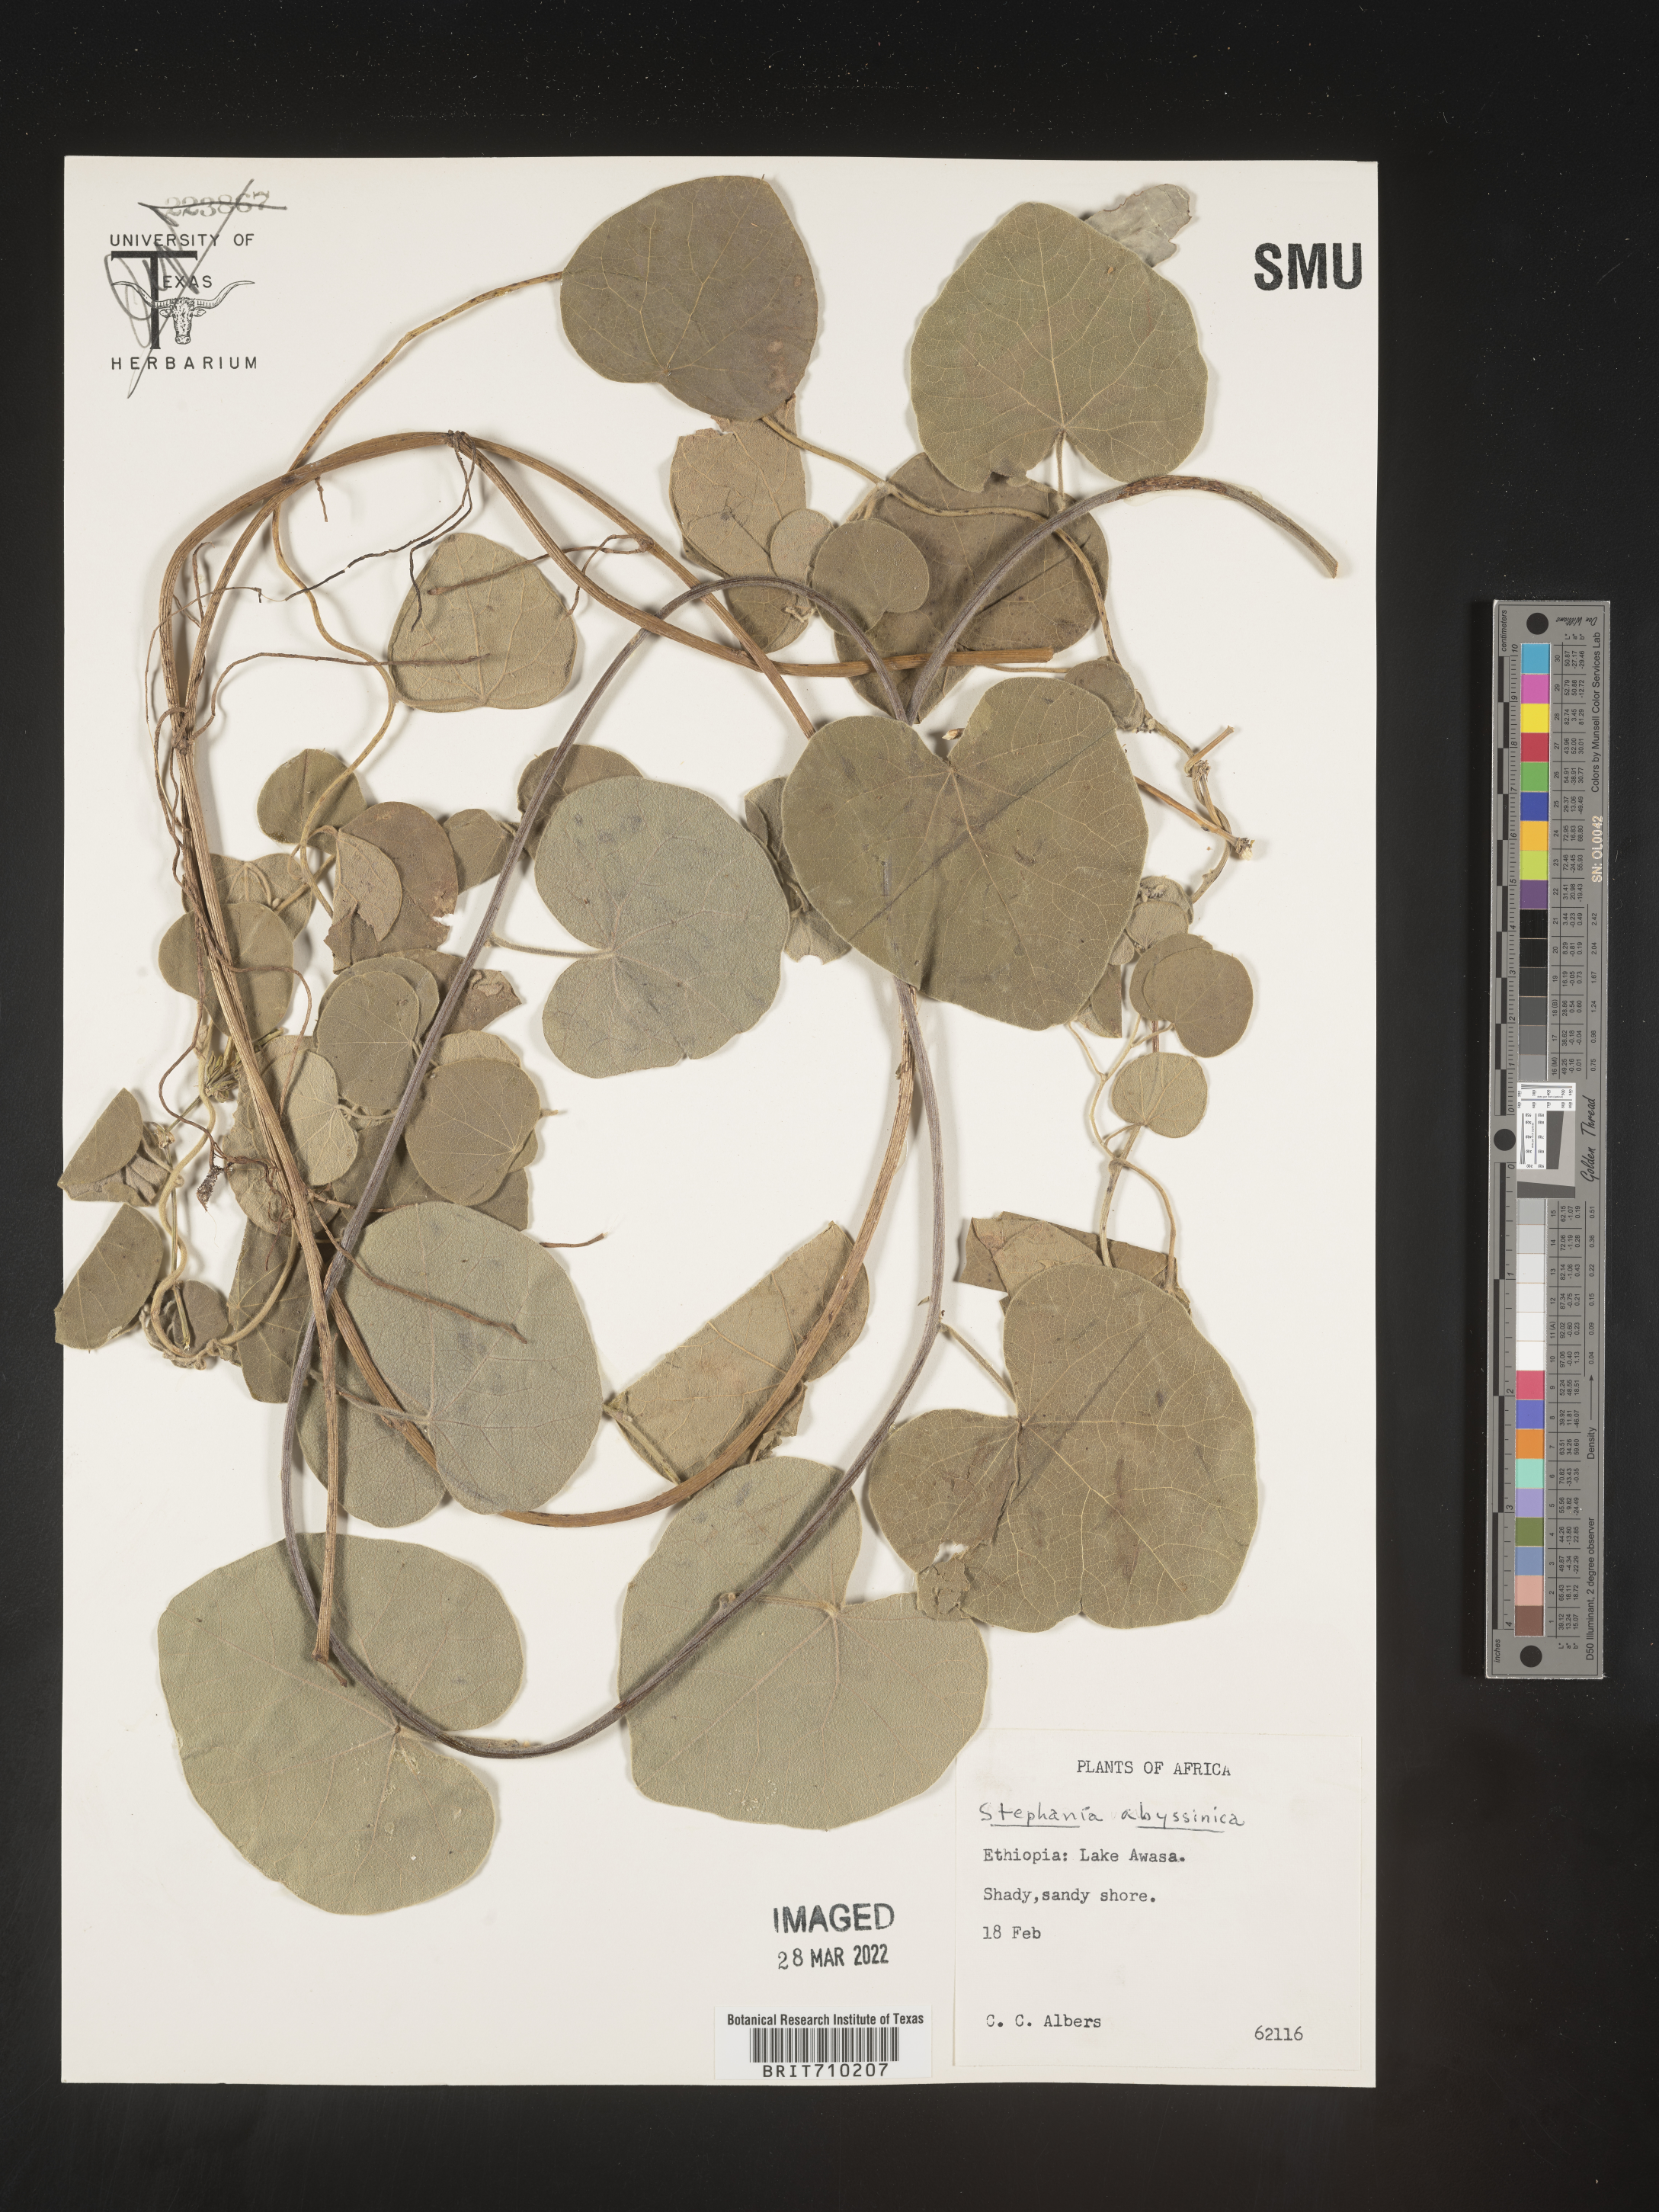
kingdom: Plantae
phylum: Tracheophyta
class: Magnoliopsida
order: Ranunculales
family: Menispermaceae
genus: Stephania
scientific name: Stephania
